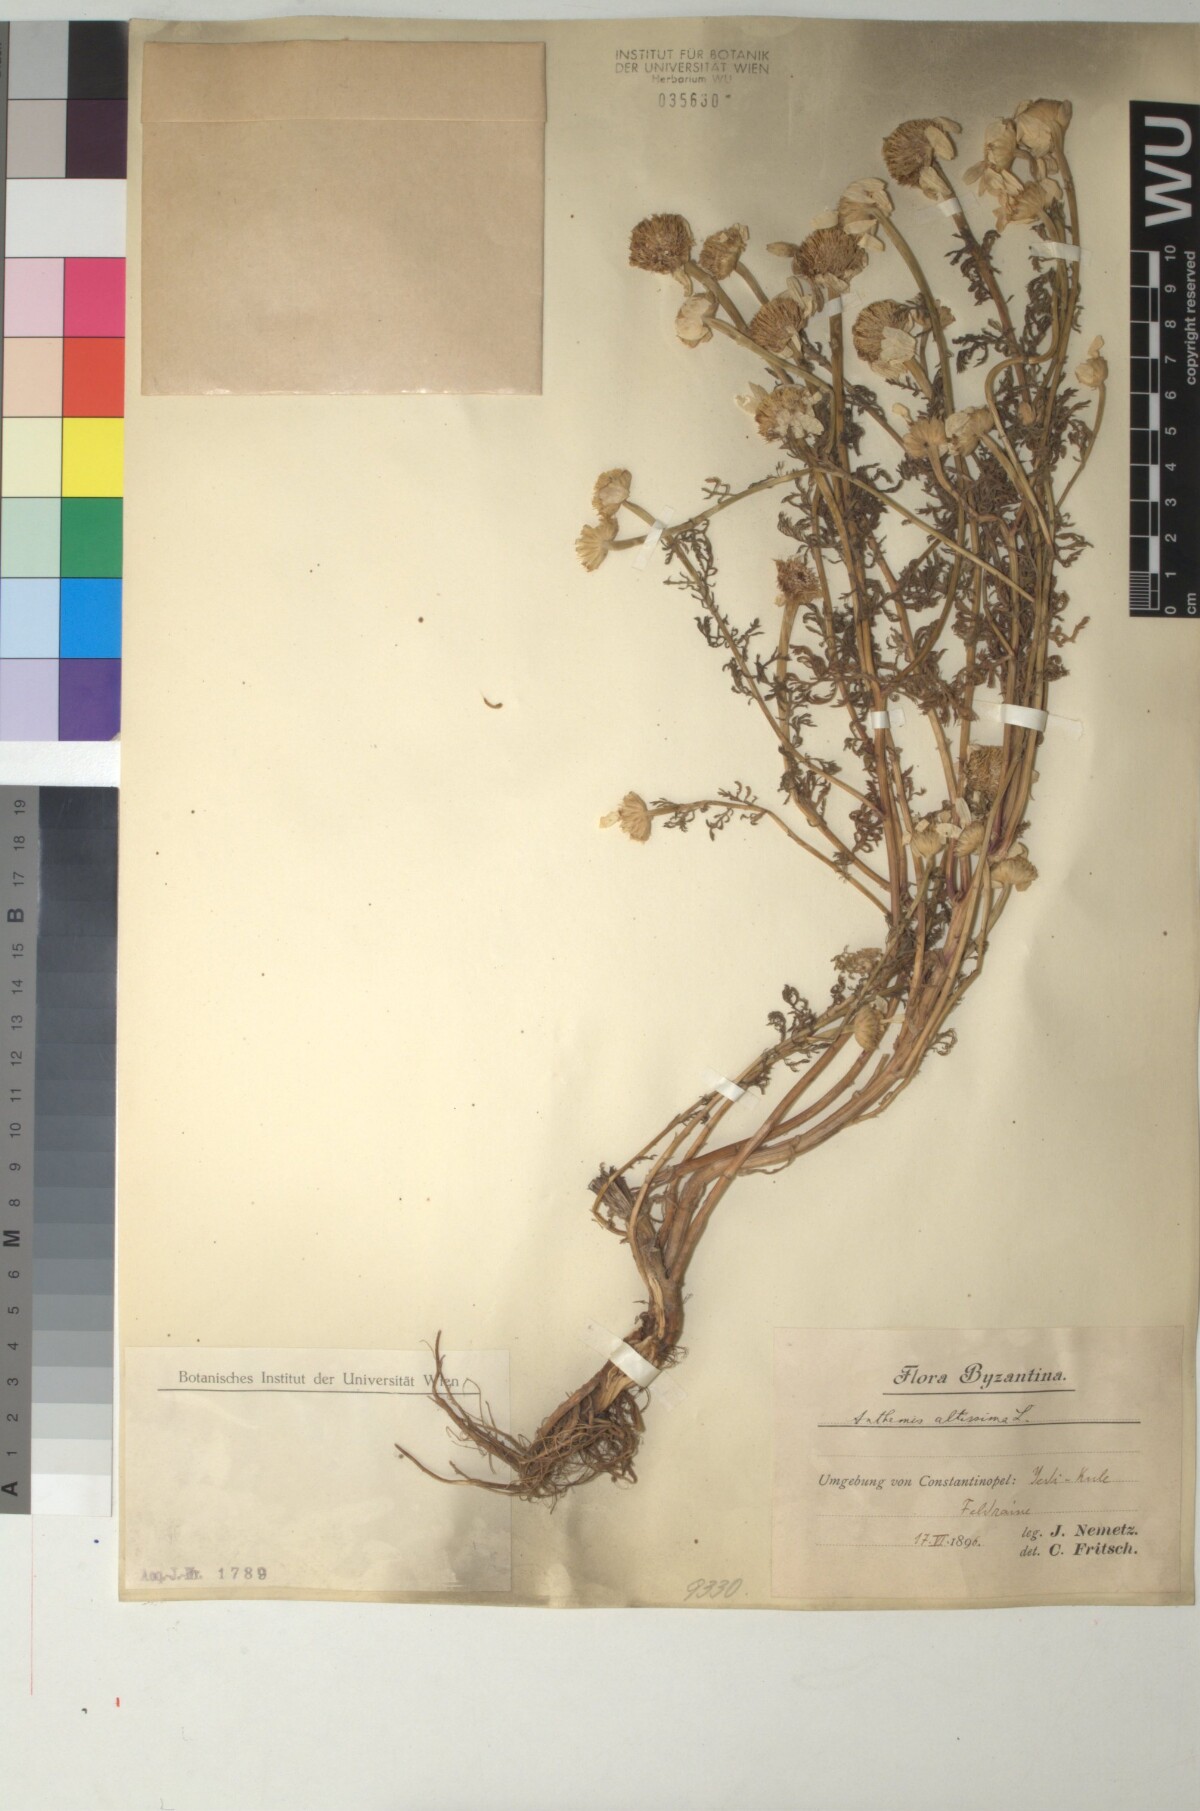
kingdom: Plantae
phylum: Tracheophyta
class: Magnoliopsida
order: Asterales
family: Asteraceae
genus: Cota
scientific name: Cota altissima
